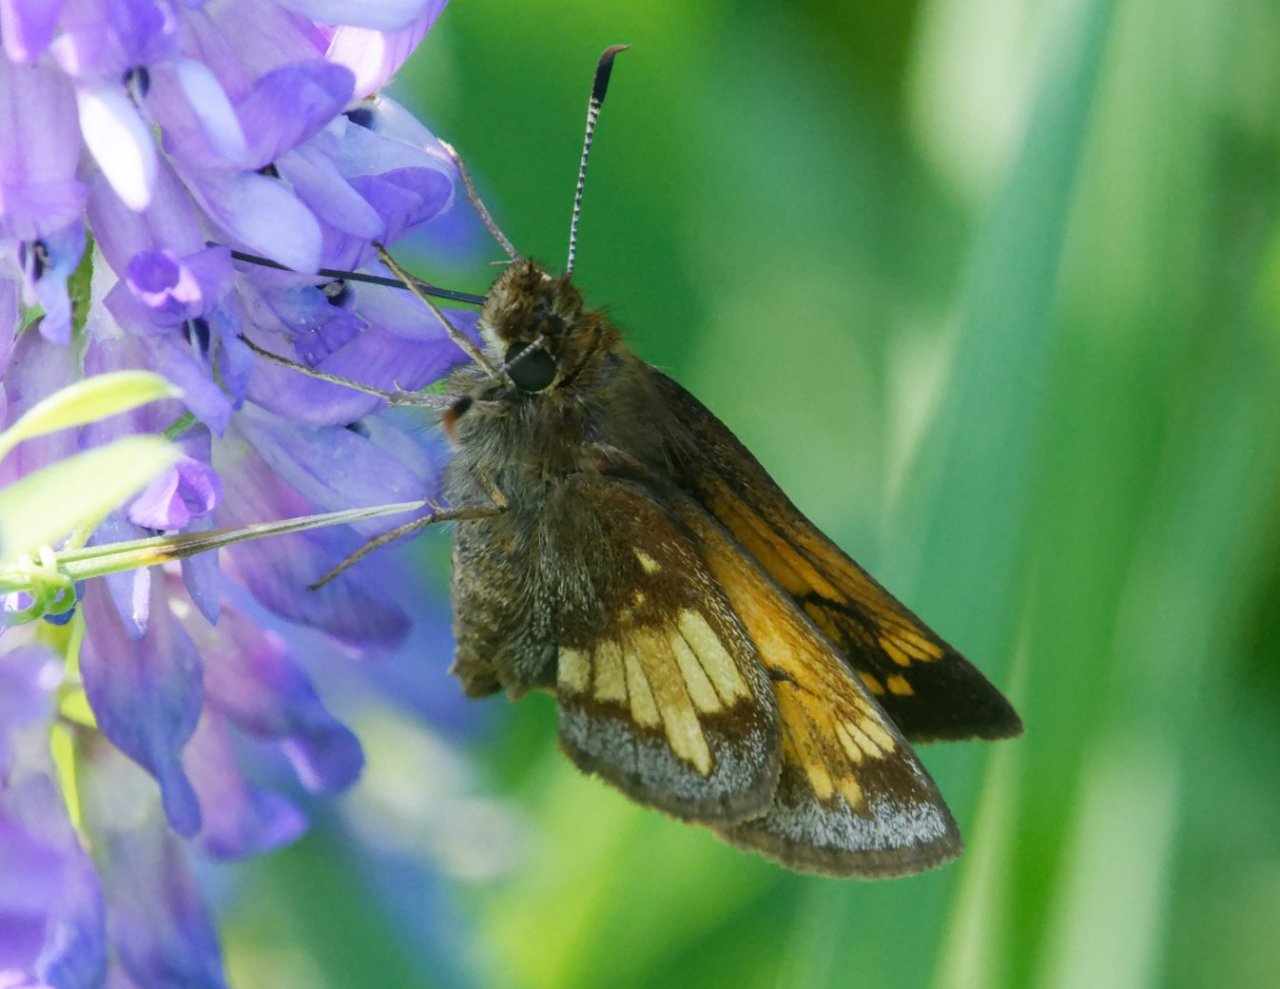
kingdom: Animalia
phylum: Arthropoda
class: Insecta
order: Lepidoptera
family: Hesperiidae
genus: Lon
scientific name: Lon hobomok
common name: Hobomok Skipper
